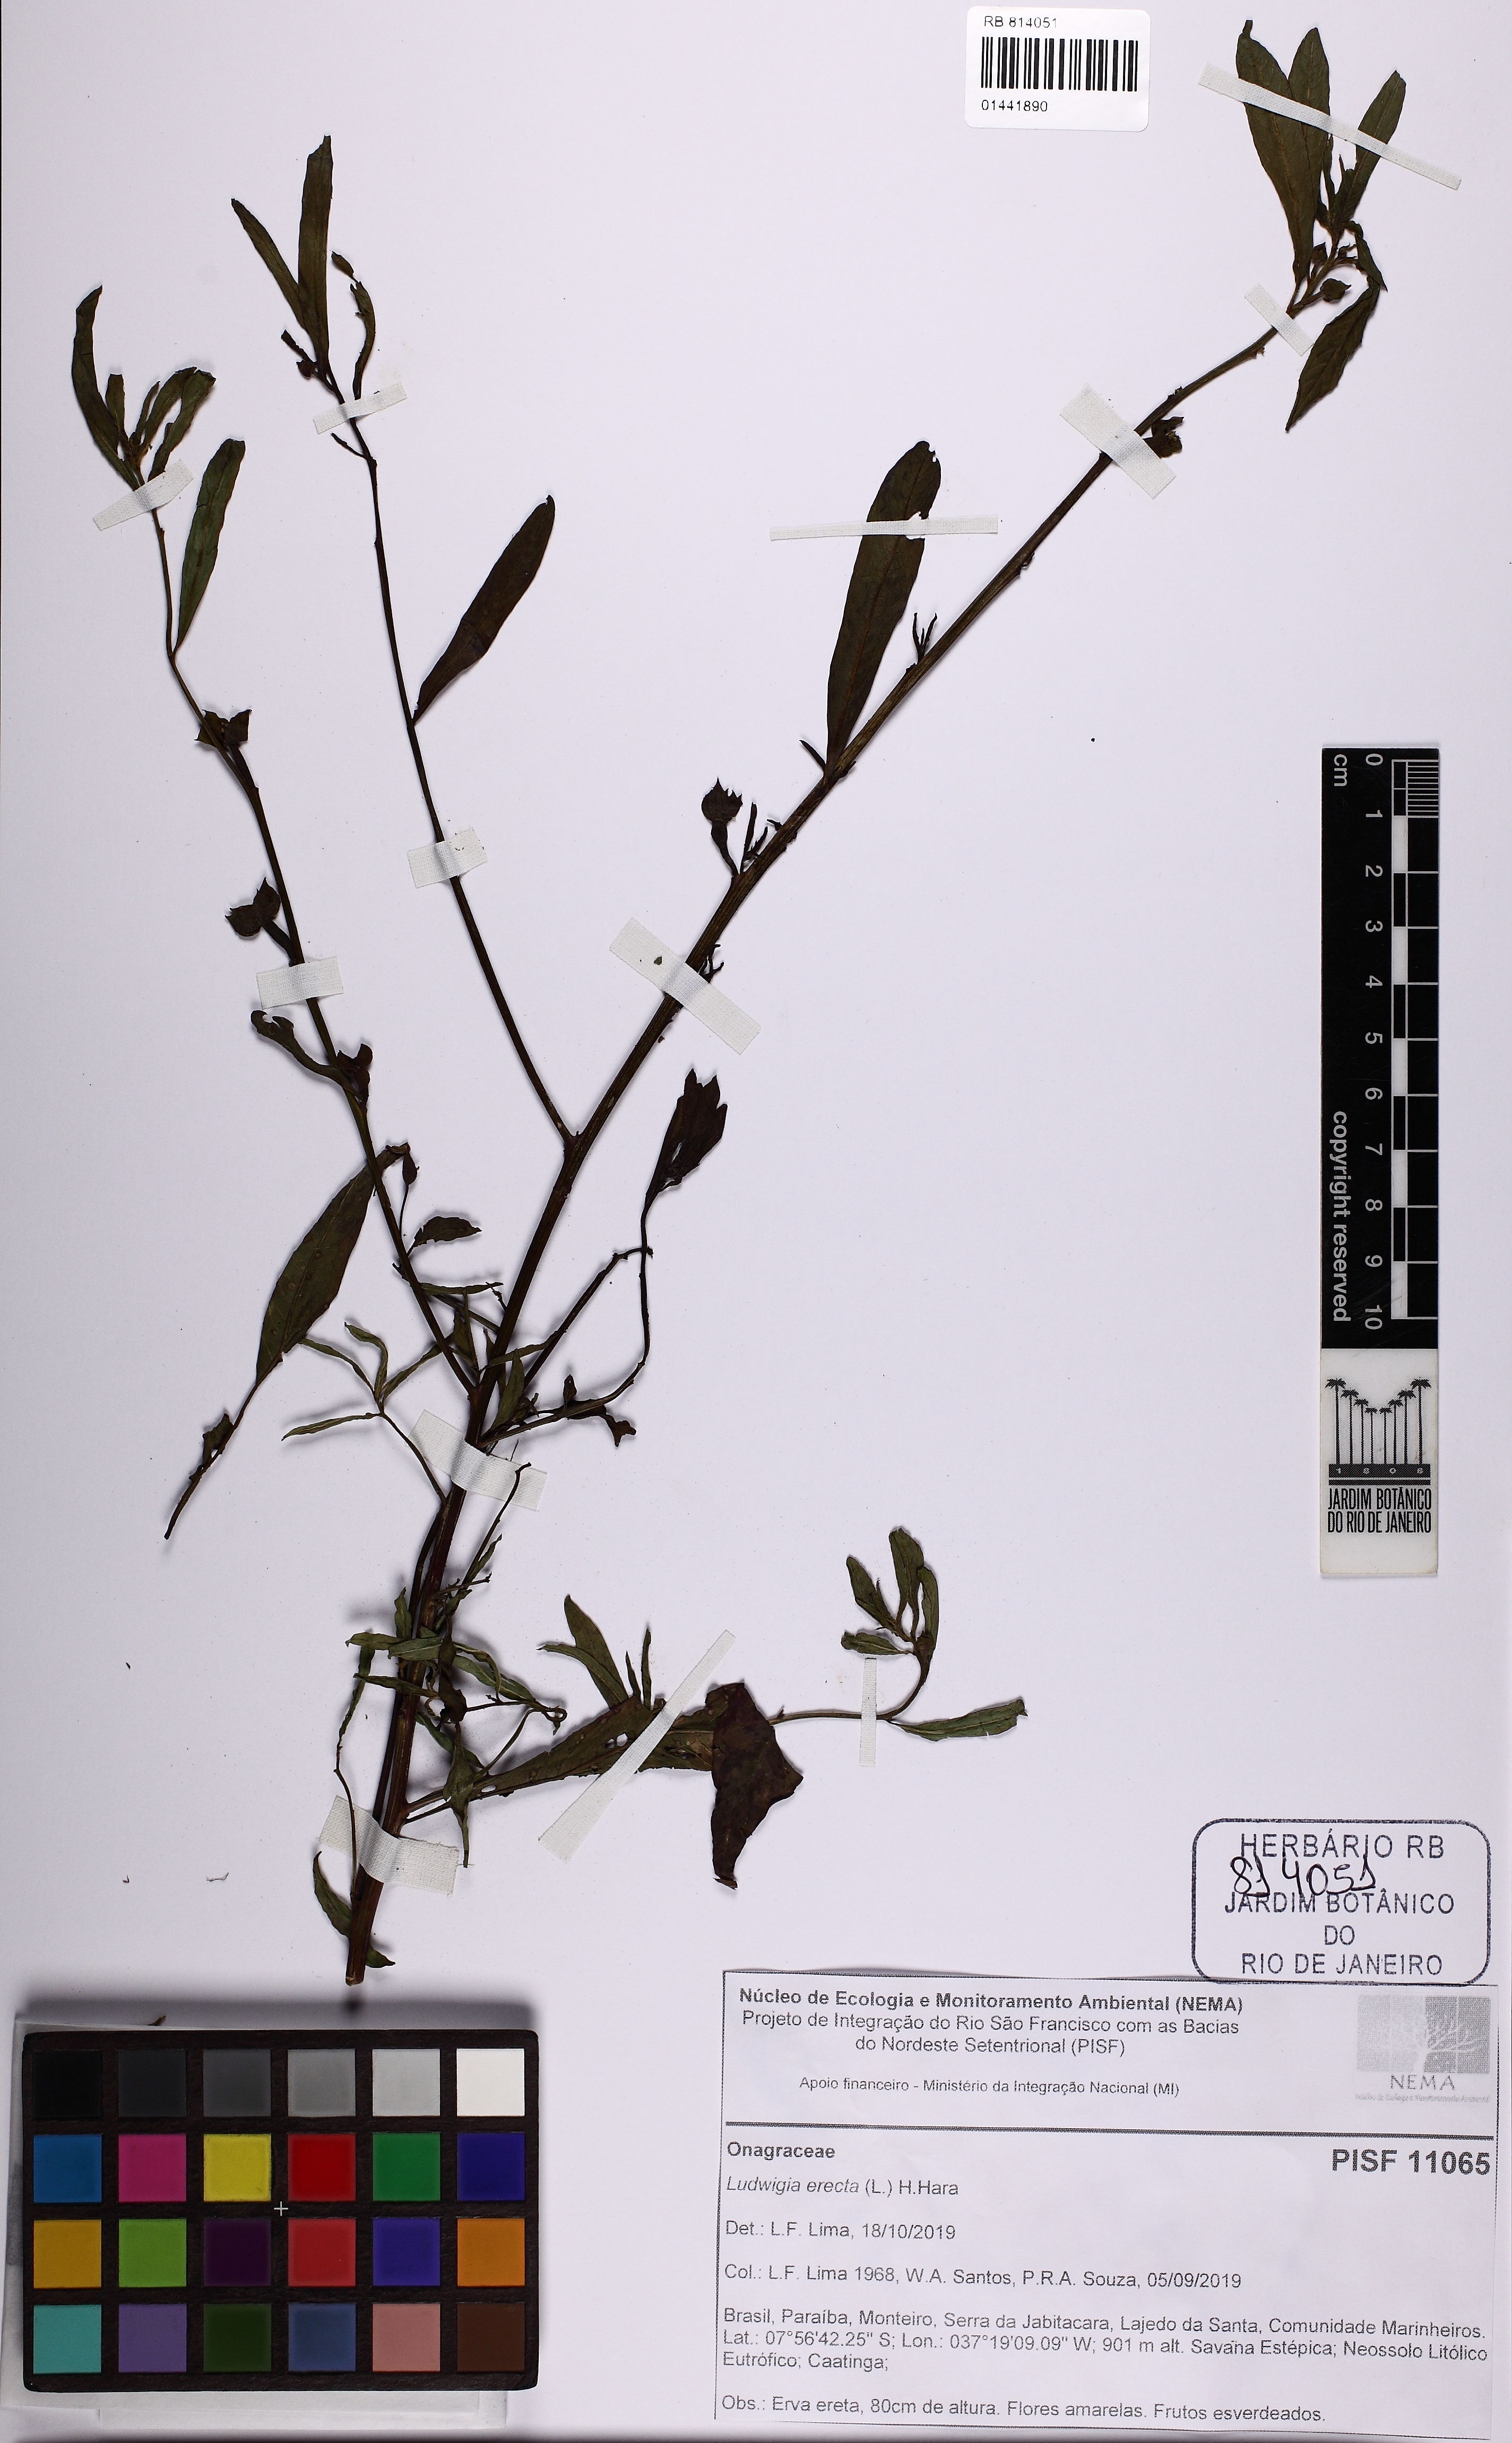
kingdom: Plantae
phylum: Tracheophyta
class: Magnoliopsida
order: Myrtales
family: Onagraceae
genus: Ludwigia
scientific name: Ludwigia erecta
